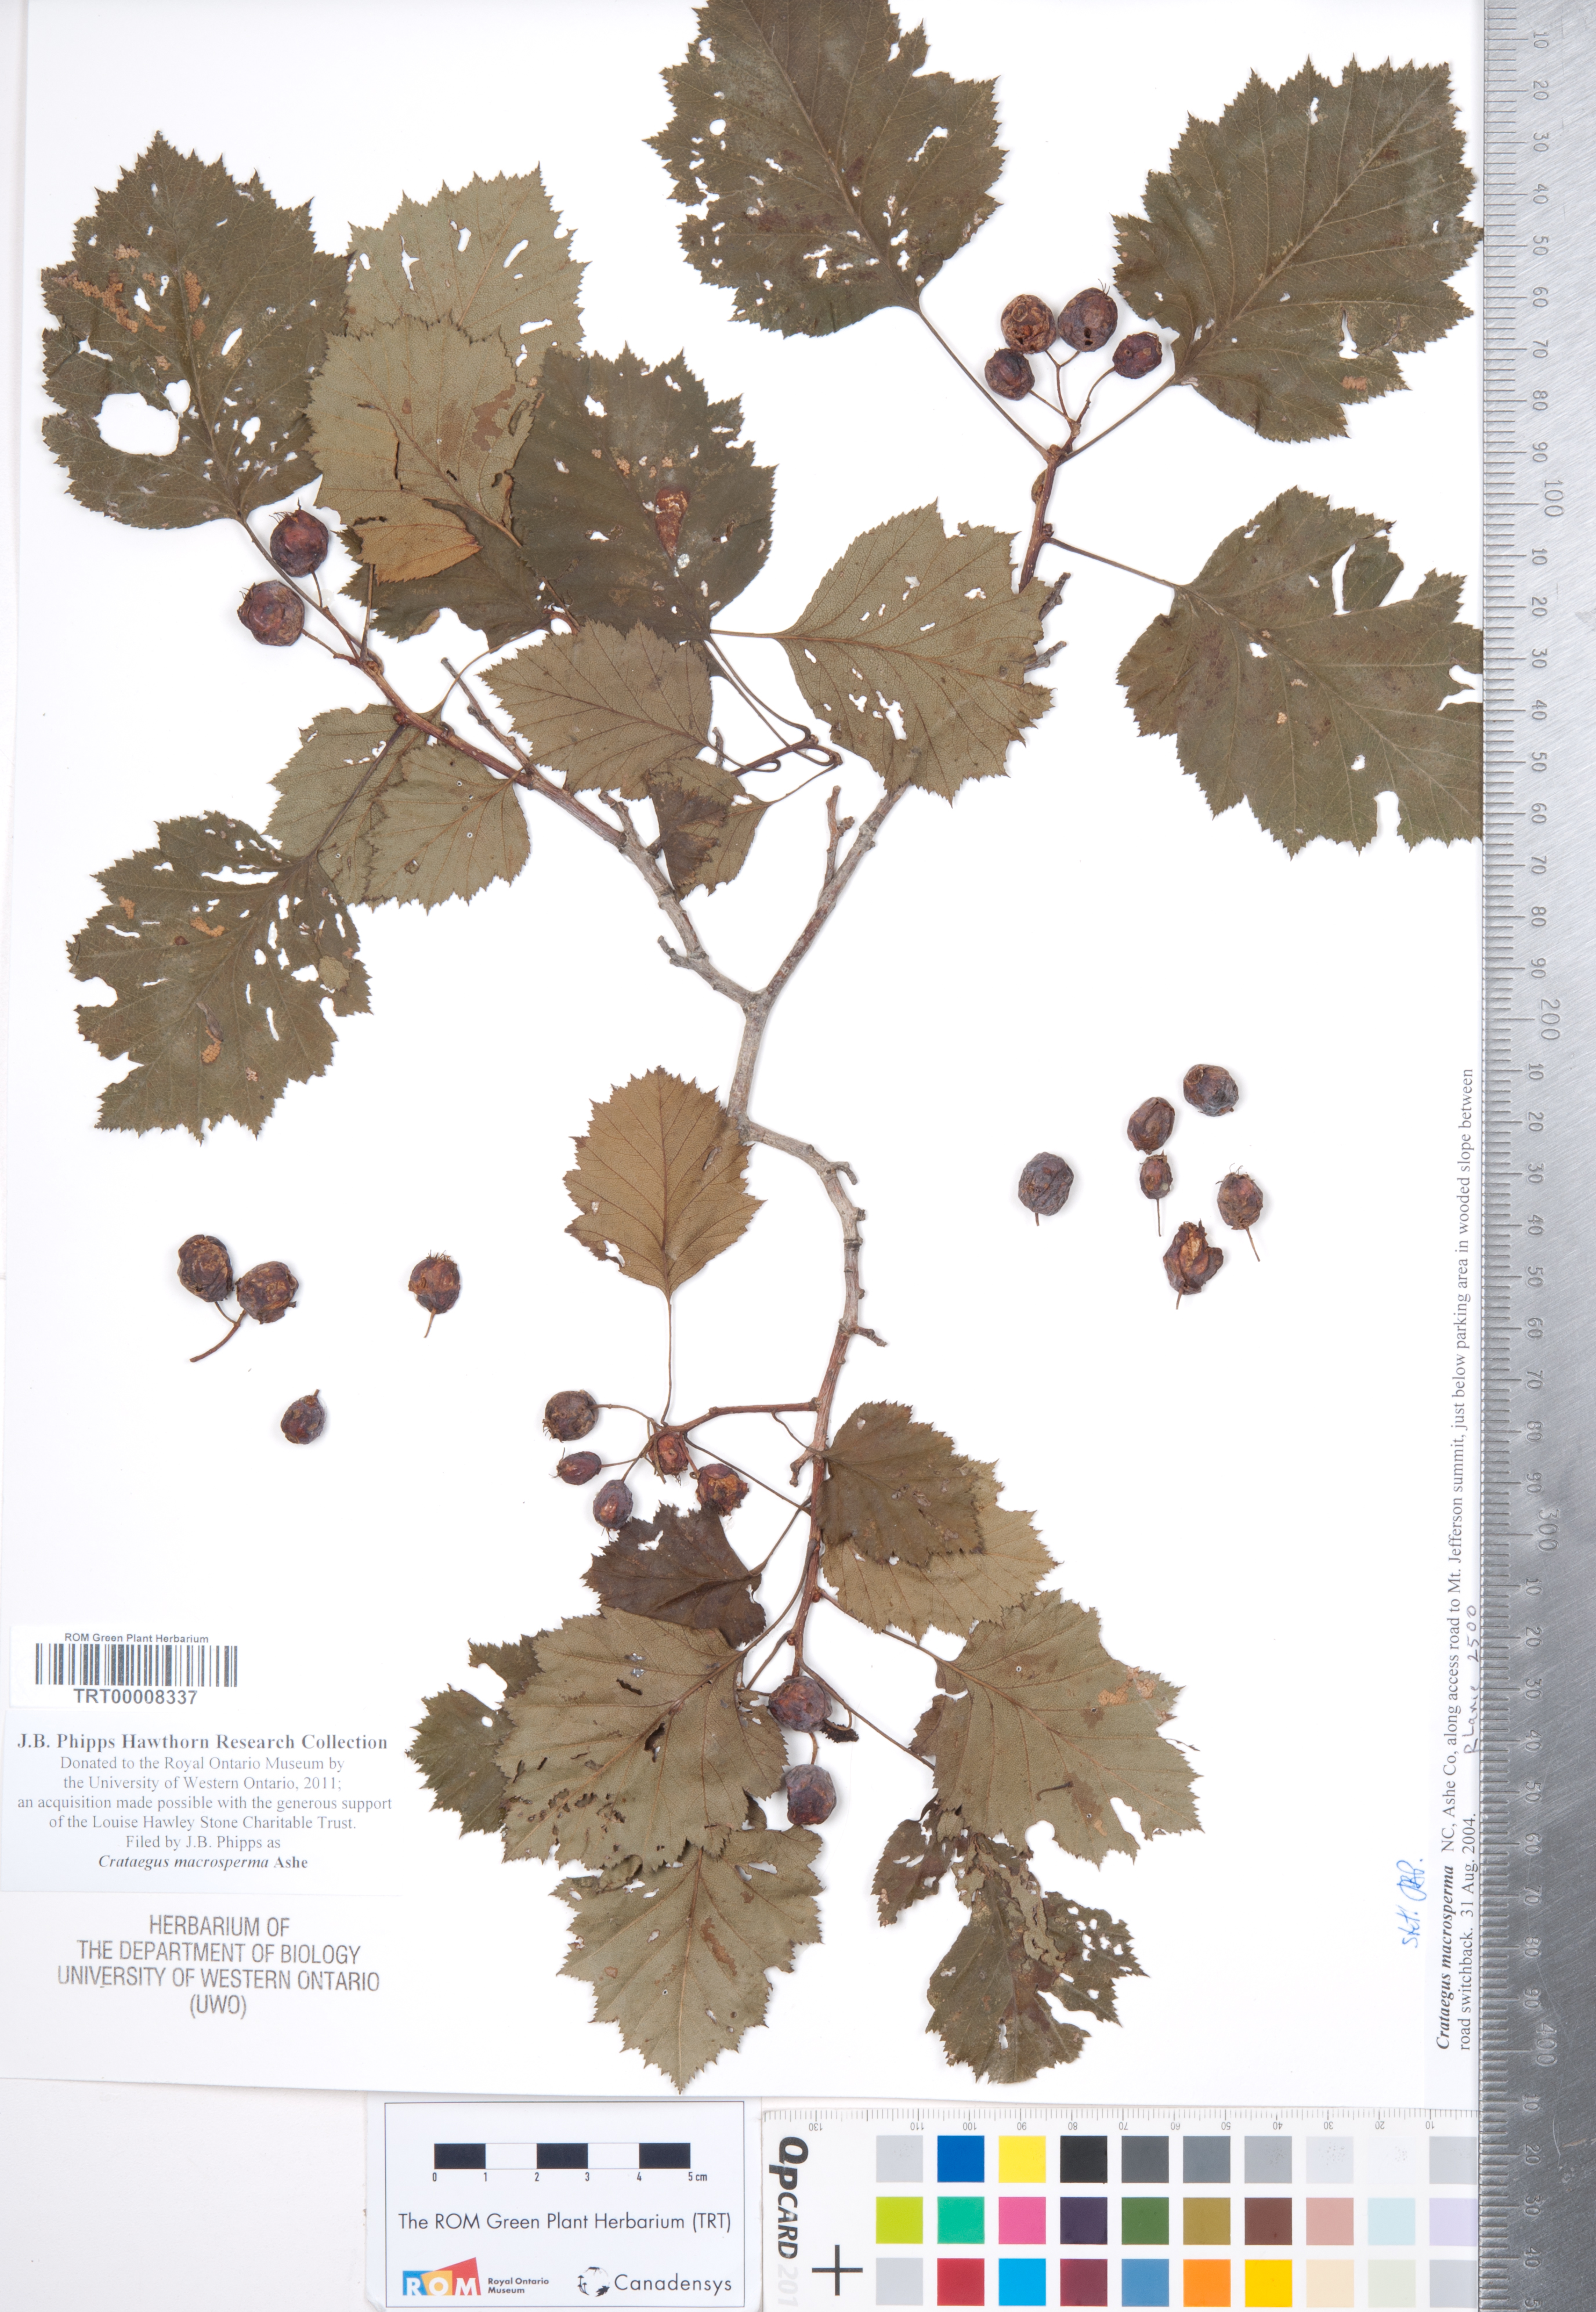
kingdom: Plantae
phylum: Tracheophyta
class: Magnoliopsida
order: Rosales
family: Rosaceae
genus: Crataegus
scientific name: Crataegus macrosperma
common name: Variable hawthorn
